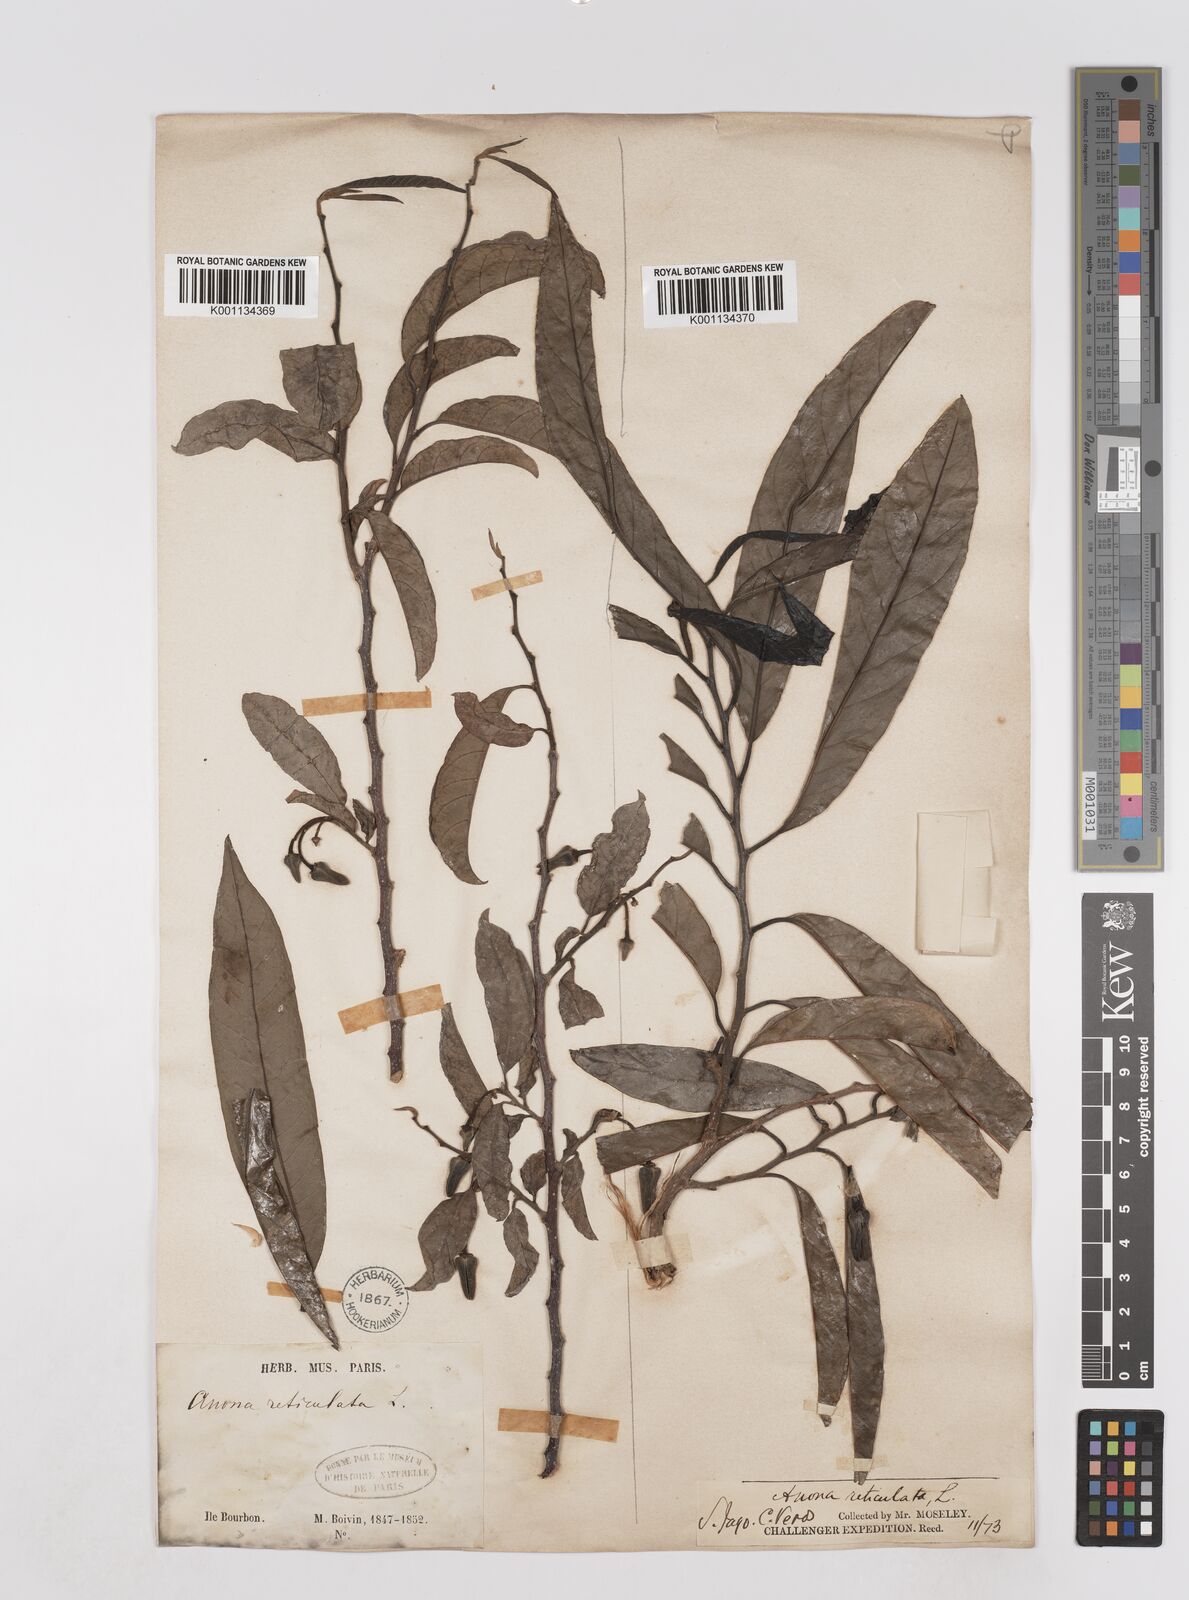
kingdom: Plantae
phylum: Tracheophyta
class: Magnoliopsida
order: Magnoliales
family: Annonaceae
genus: Annona
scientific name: Annona squamosa
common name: Custard-apple
